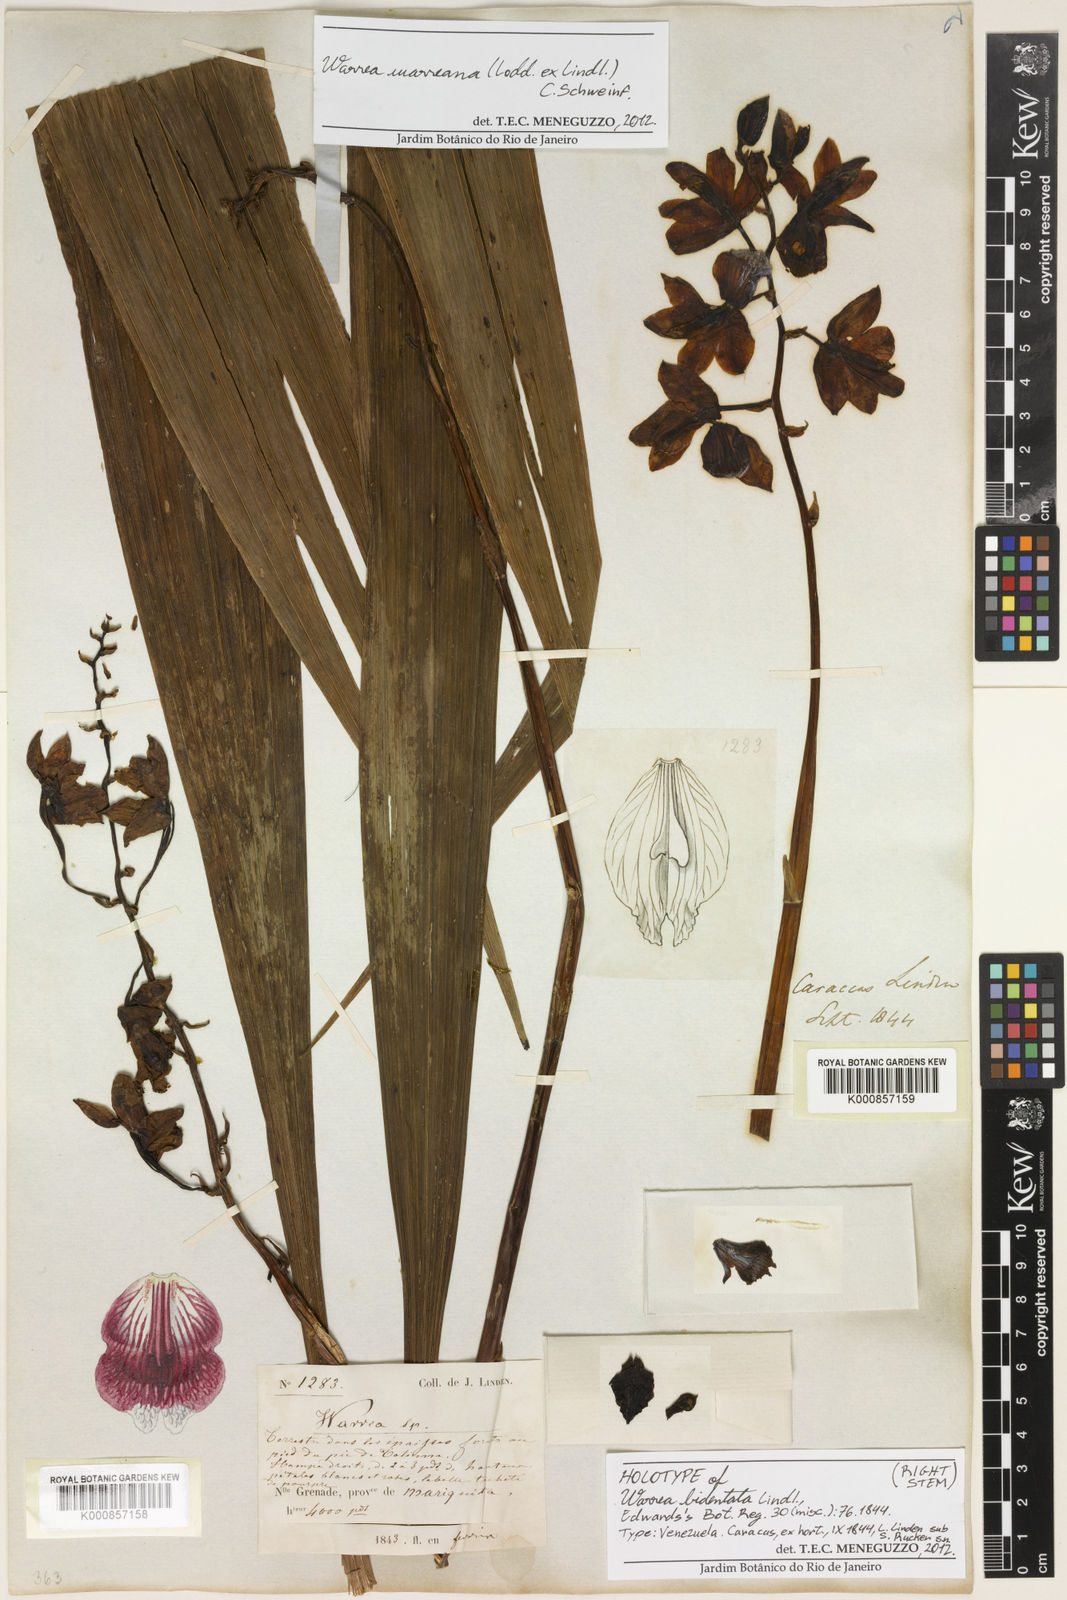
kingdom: Plantae
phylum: Tracheophyta
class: Liliopsida
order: Asparagales
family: Orchidaceae
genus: Warrea
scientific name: Warrea warreana
